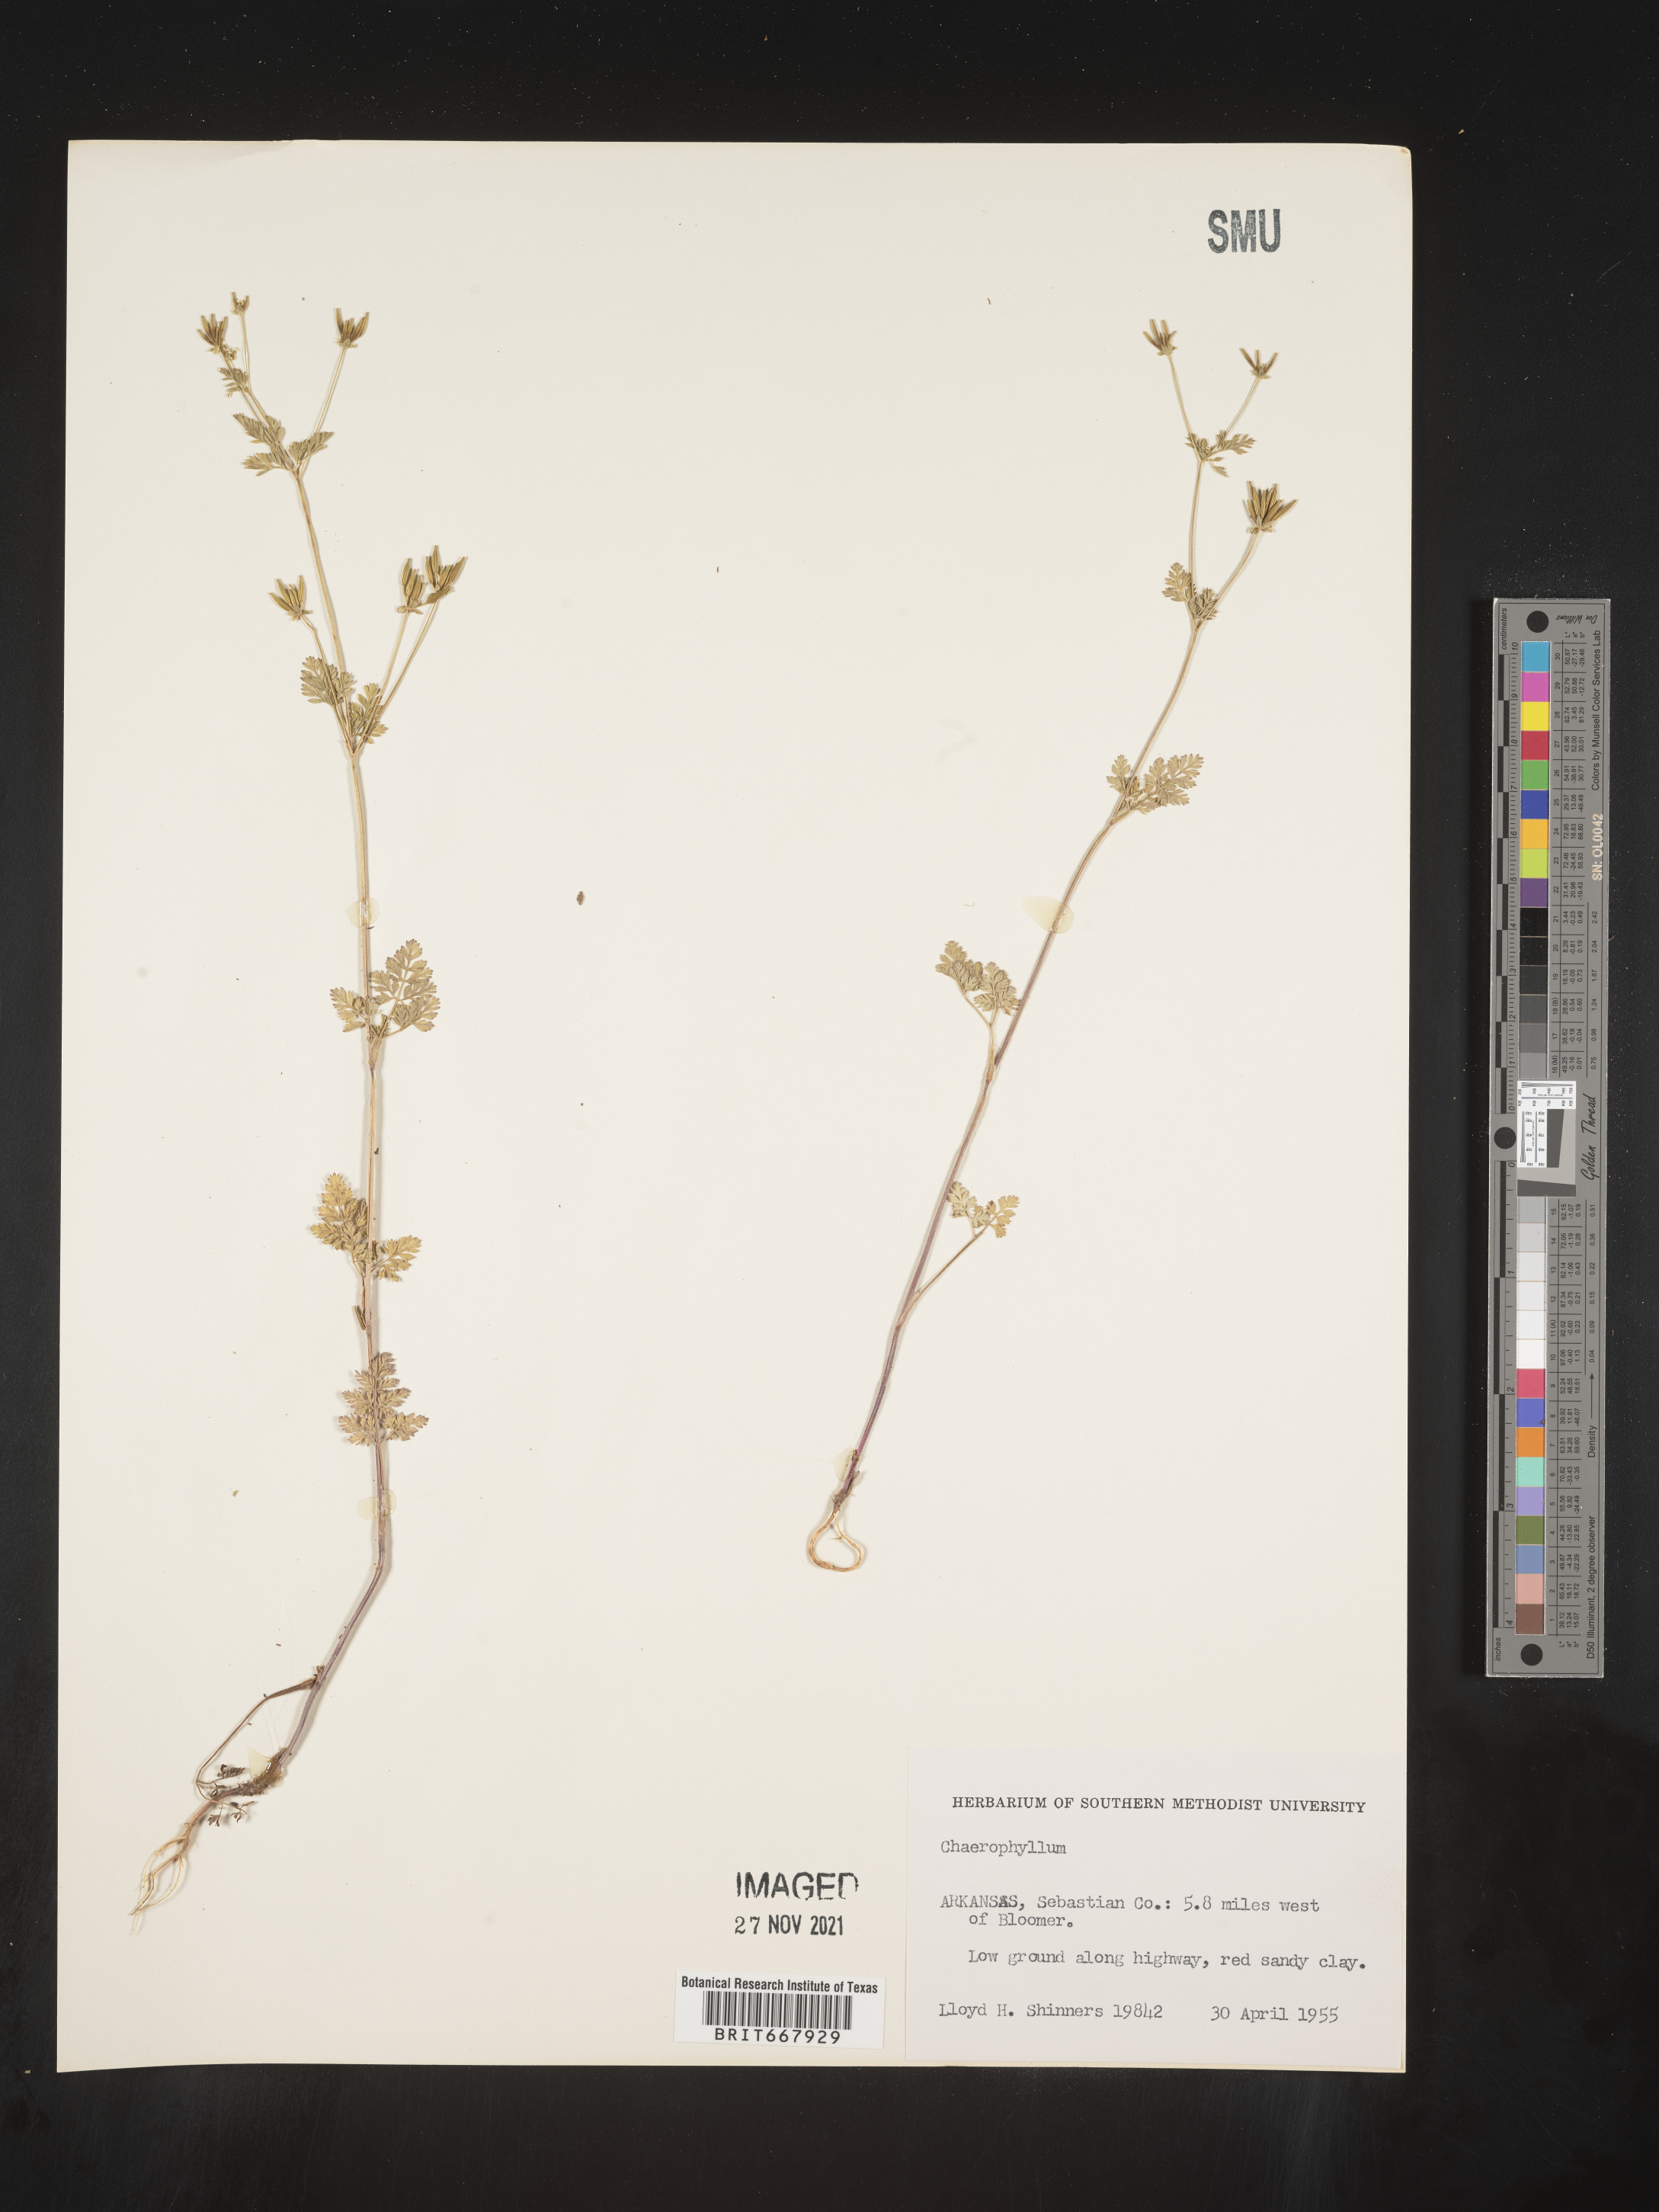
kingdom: Plantae
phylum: Tracheophyta
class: Magnoliopsida
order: Apiales
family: Apiaceae
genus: Chaerophyllum
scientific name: Chaerophyllum tainturieri
